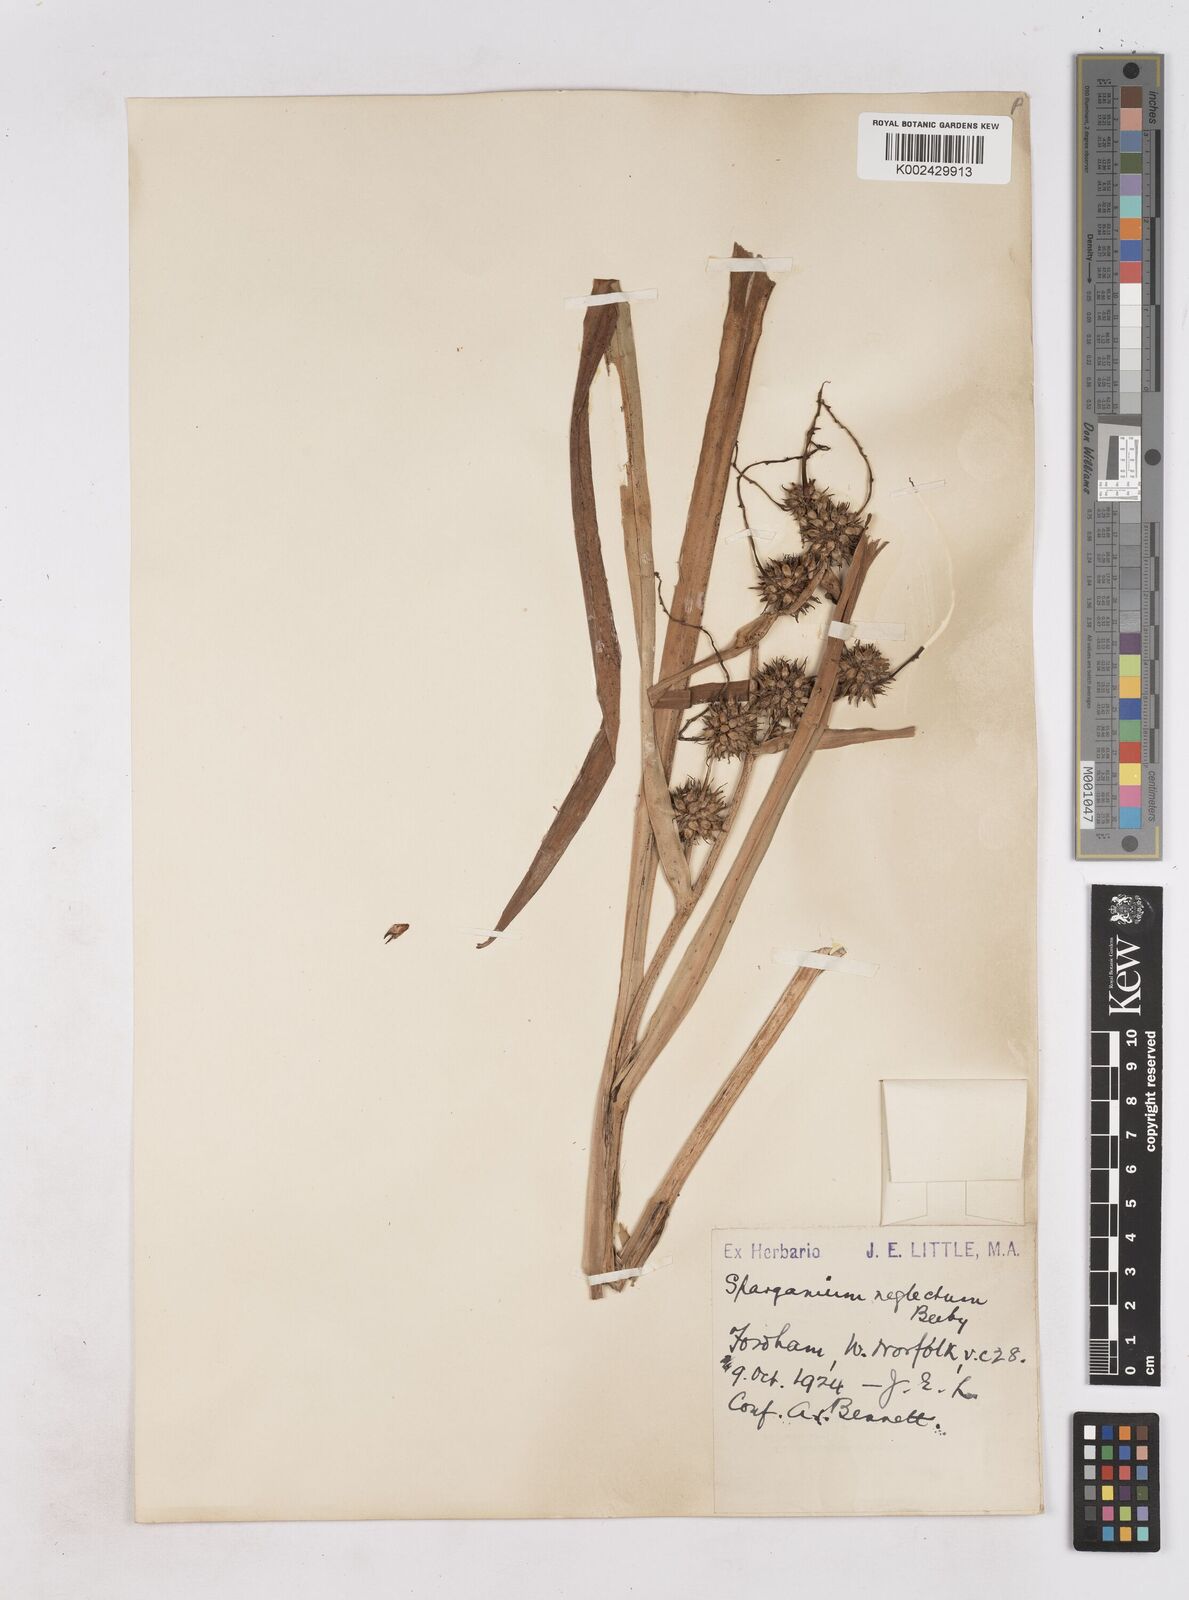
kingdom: Plantae
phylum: Tracheophyta
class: Liliopsida
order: Poales
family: Typhaceae
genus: Sparganium
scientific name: Sparganium erectum
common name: Branched bur-reed
